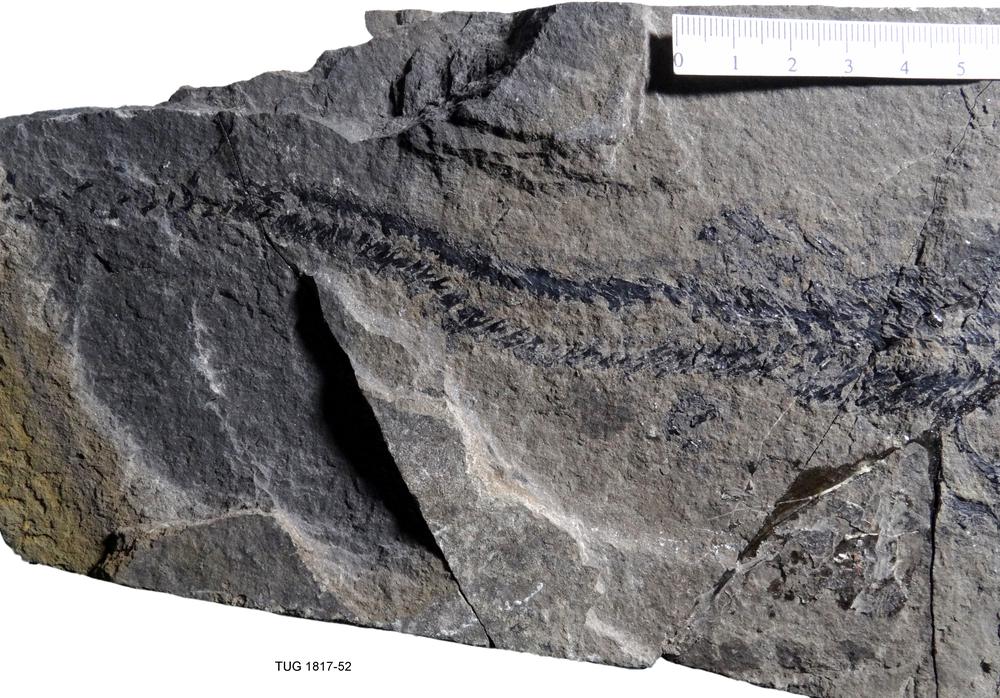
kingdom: Animalia
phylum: Chordata
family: Coccosteidae
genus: Coccosteus
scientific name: Coccosteus cuspidatus
